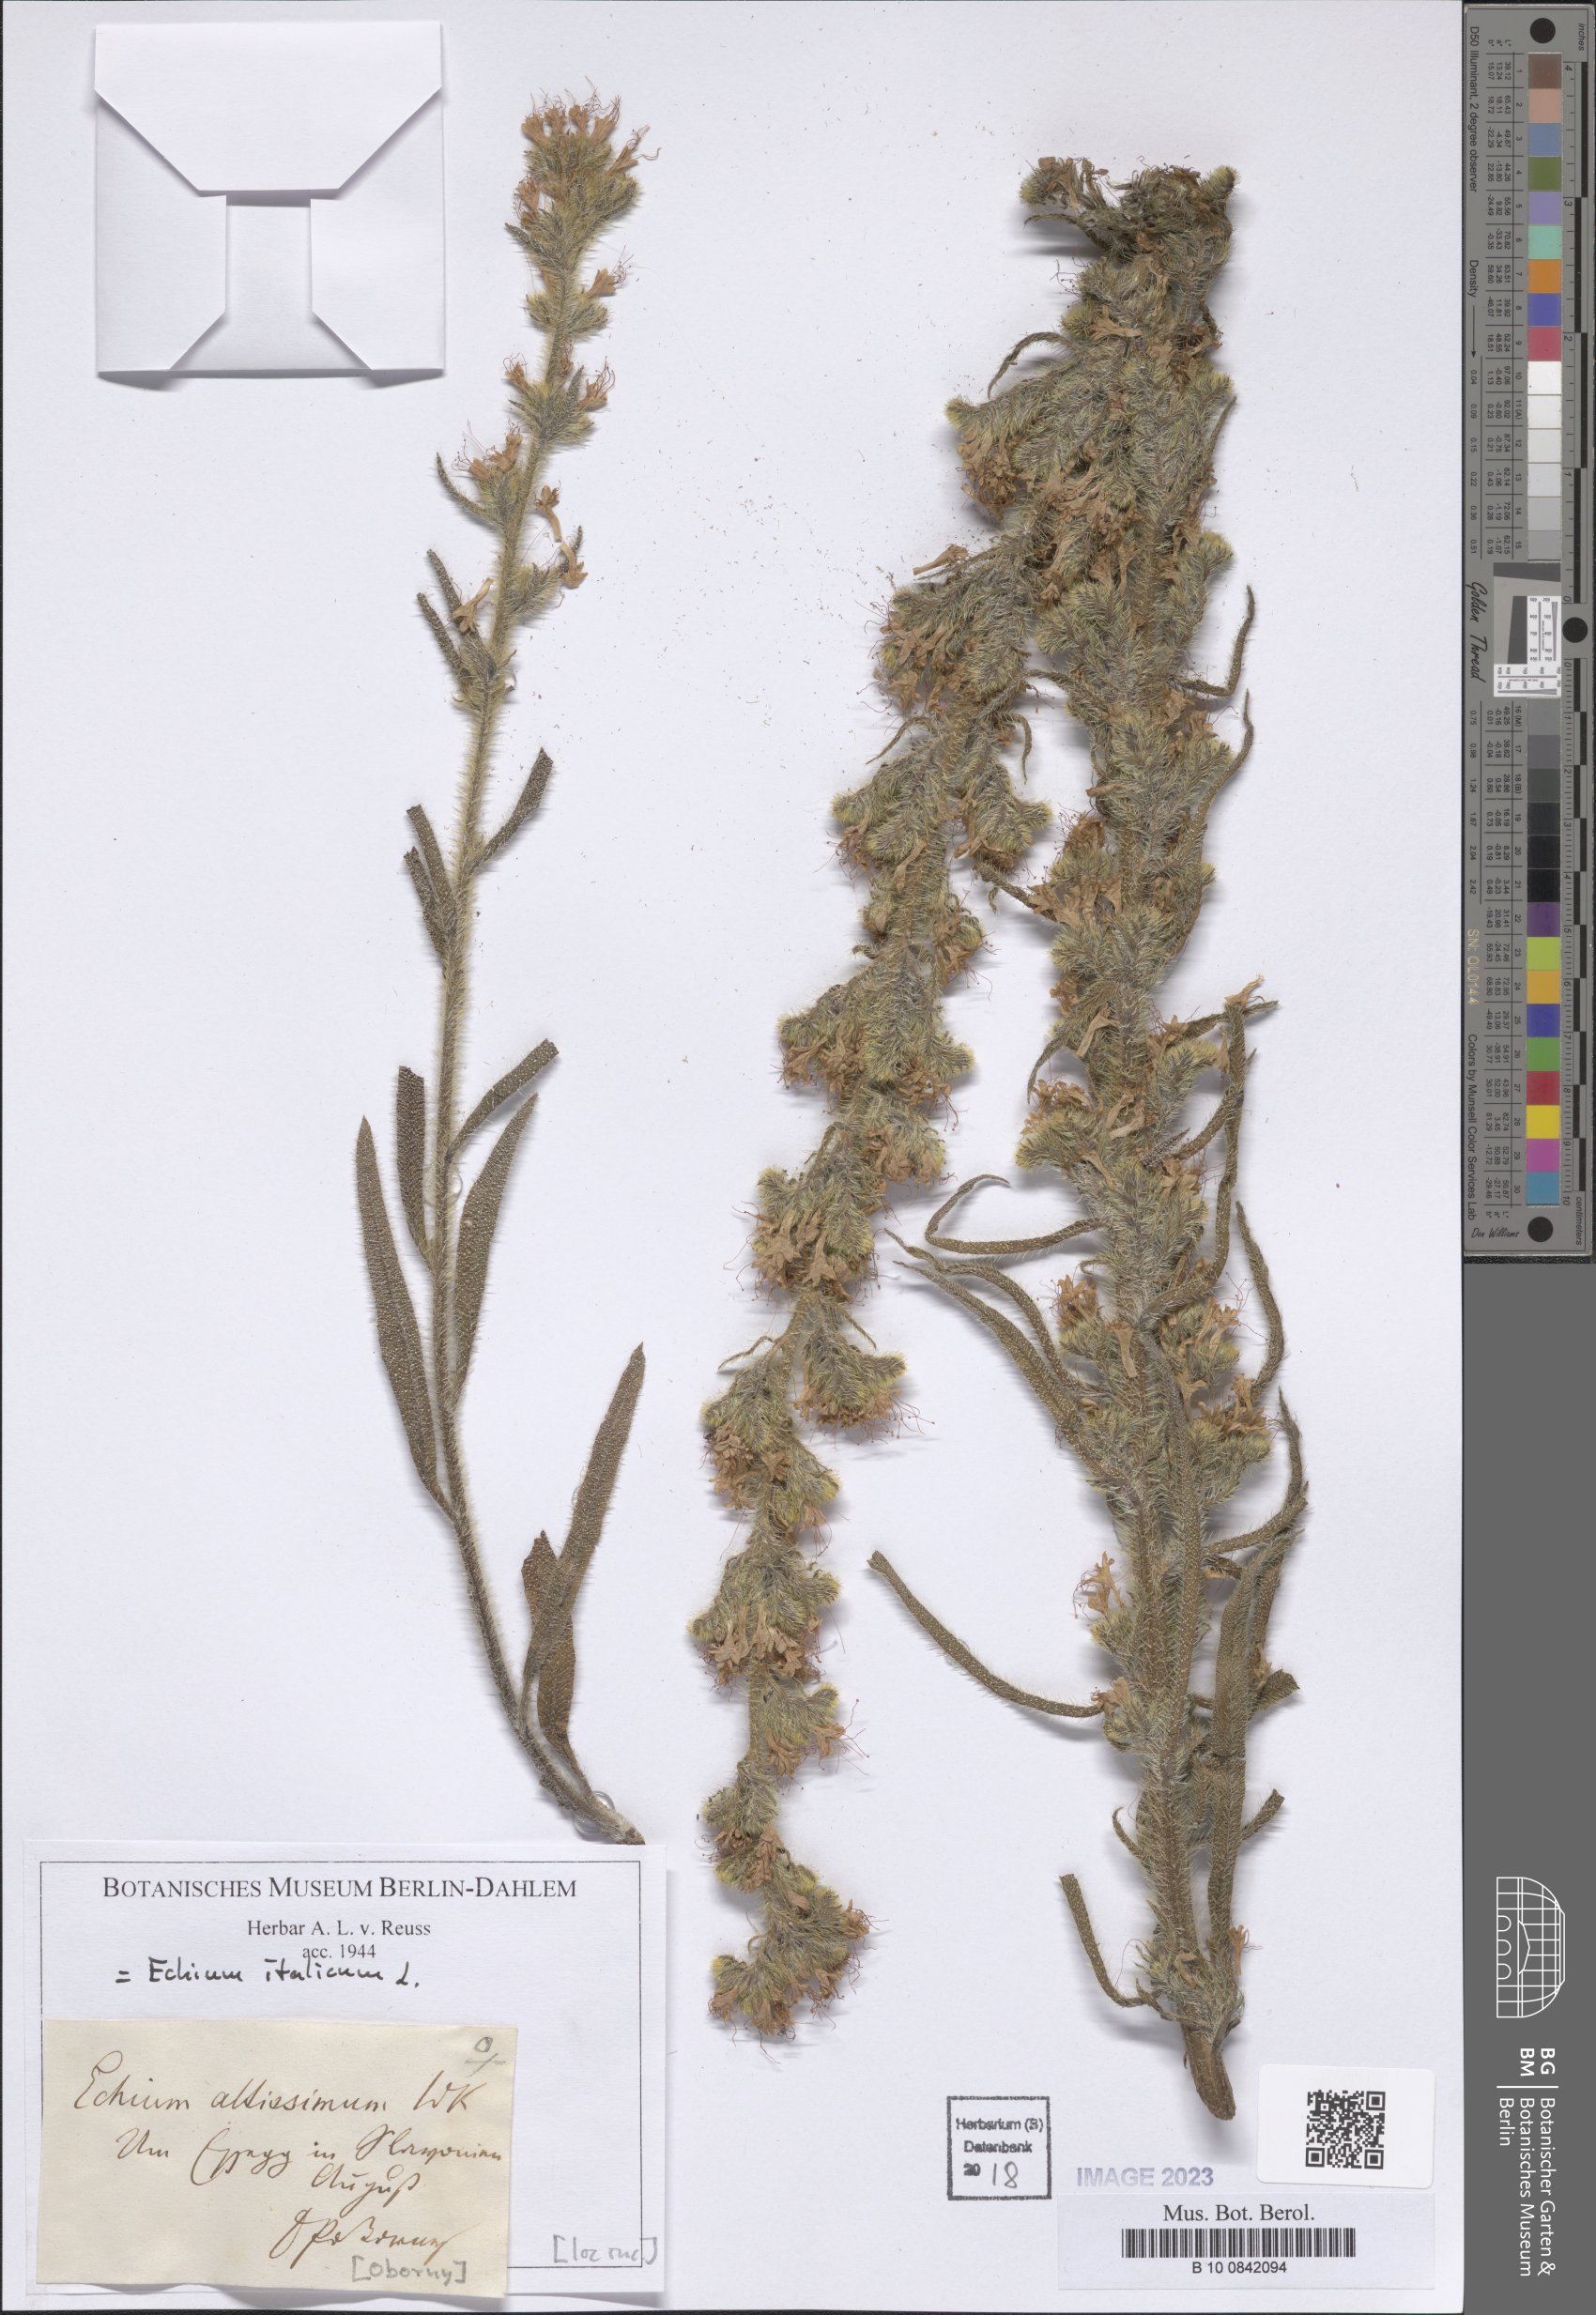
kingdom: Plantae
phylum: Tracheophyta
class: Magnoliopsida
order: Boraginales
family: Boraginaceae
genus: Echium
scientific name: Echium italicum
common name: Italian viper's bugloss
